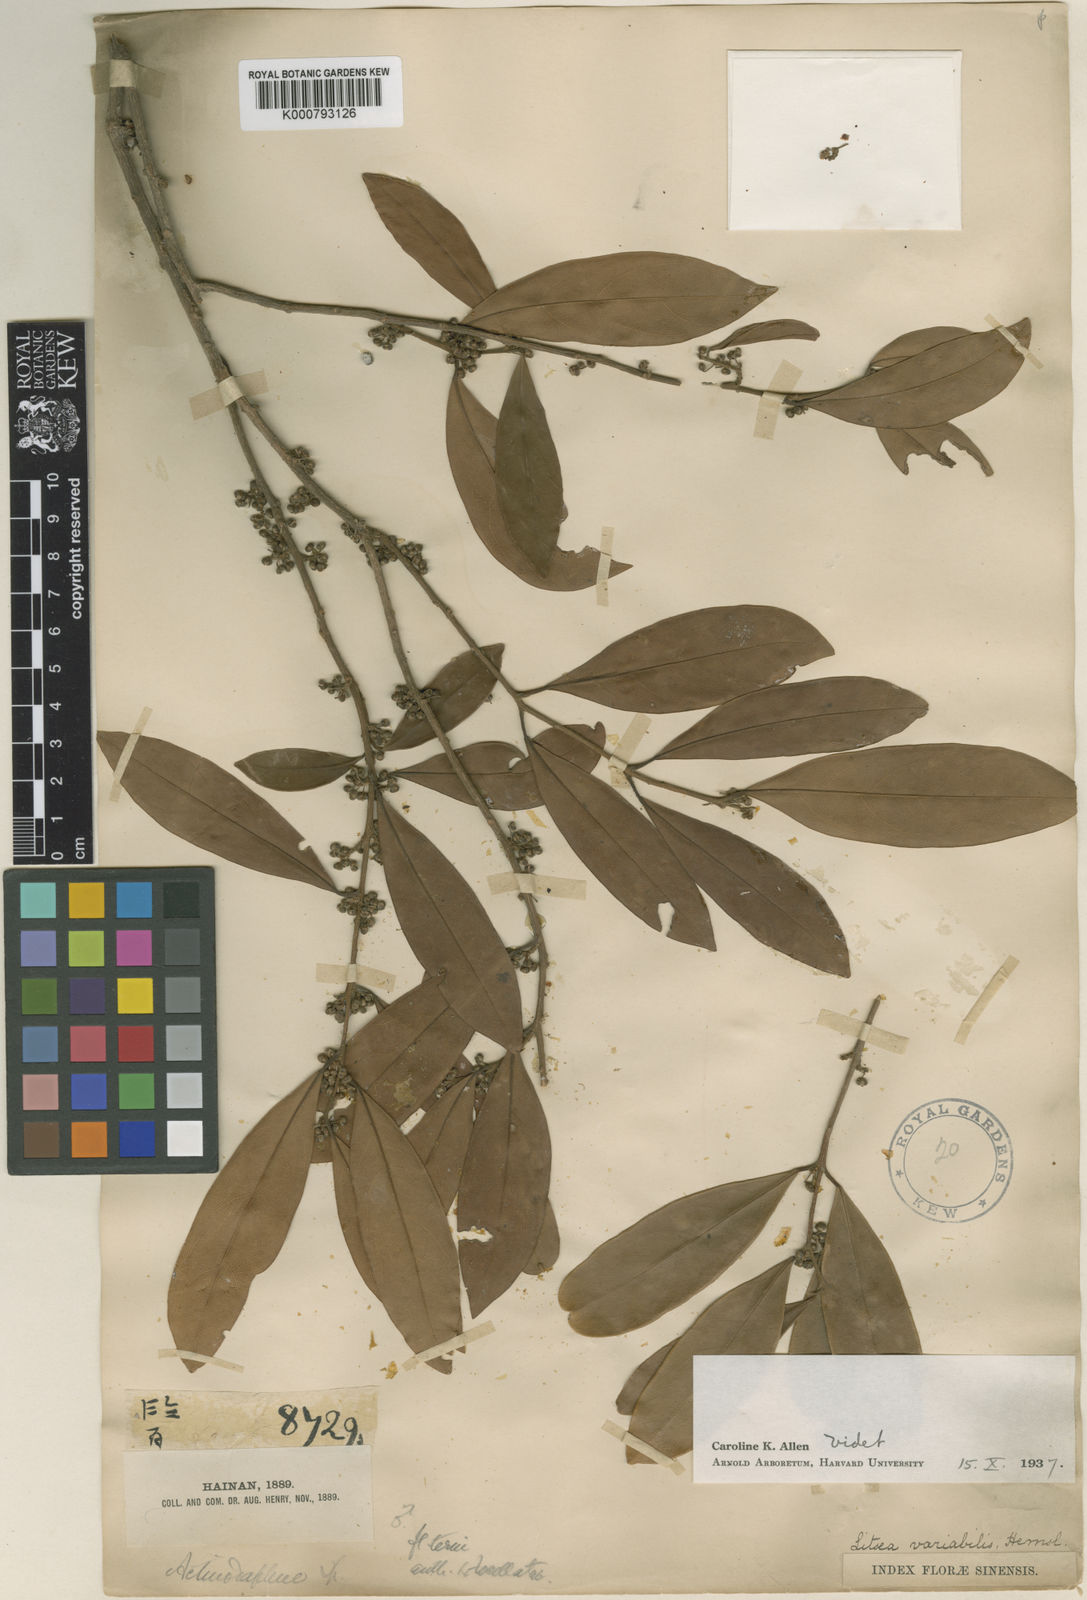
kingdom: Plantae
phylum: Tracheophyta
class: Magnoliopsida
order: Laurales
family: Lauraceae
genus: Litsea
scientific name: Litsea variabilis
